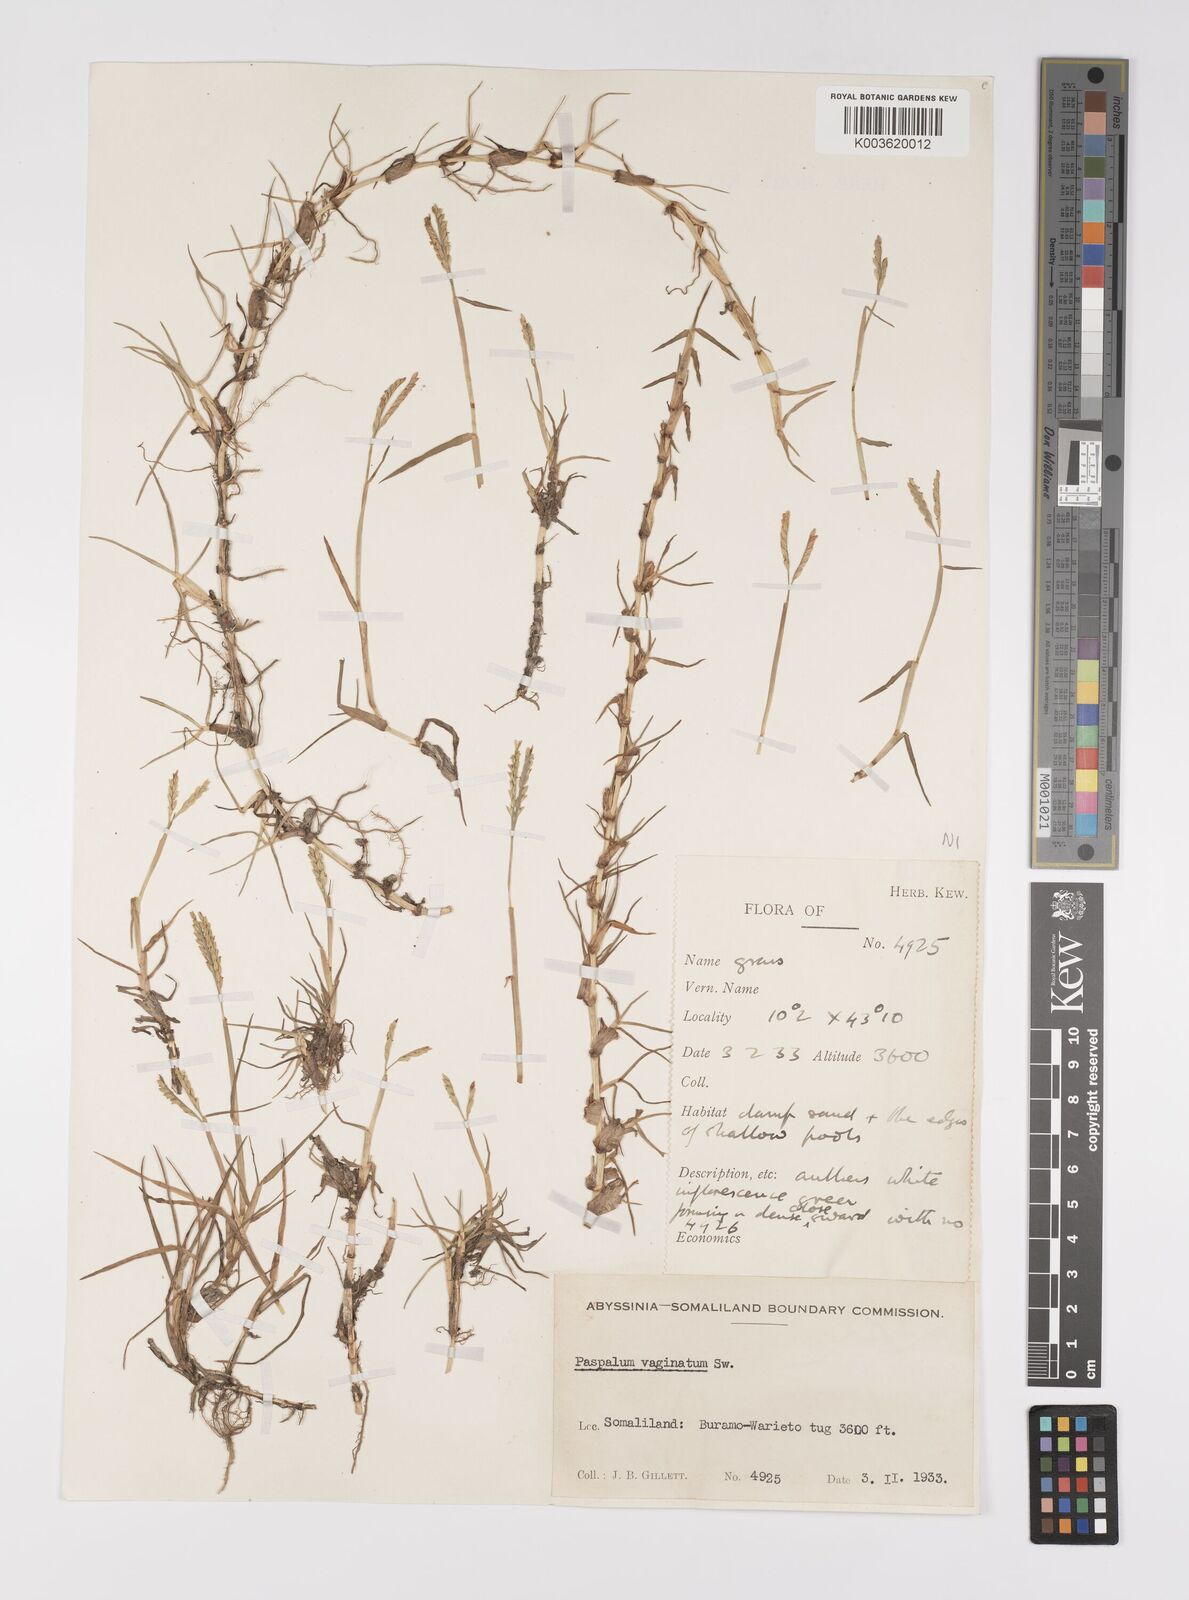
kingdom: Plantae
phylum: Tracheophyta
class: Liliopsida
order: Poales
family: Poaceae
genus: Paspalum
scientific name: Paspalum decumbens
